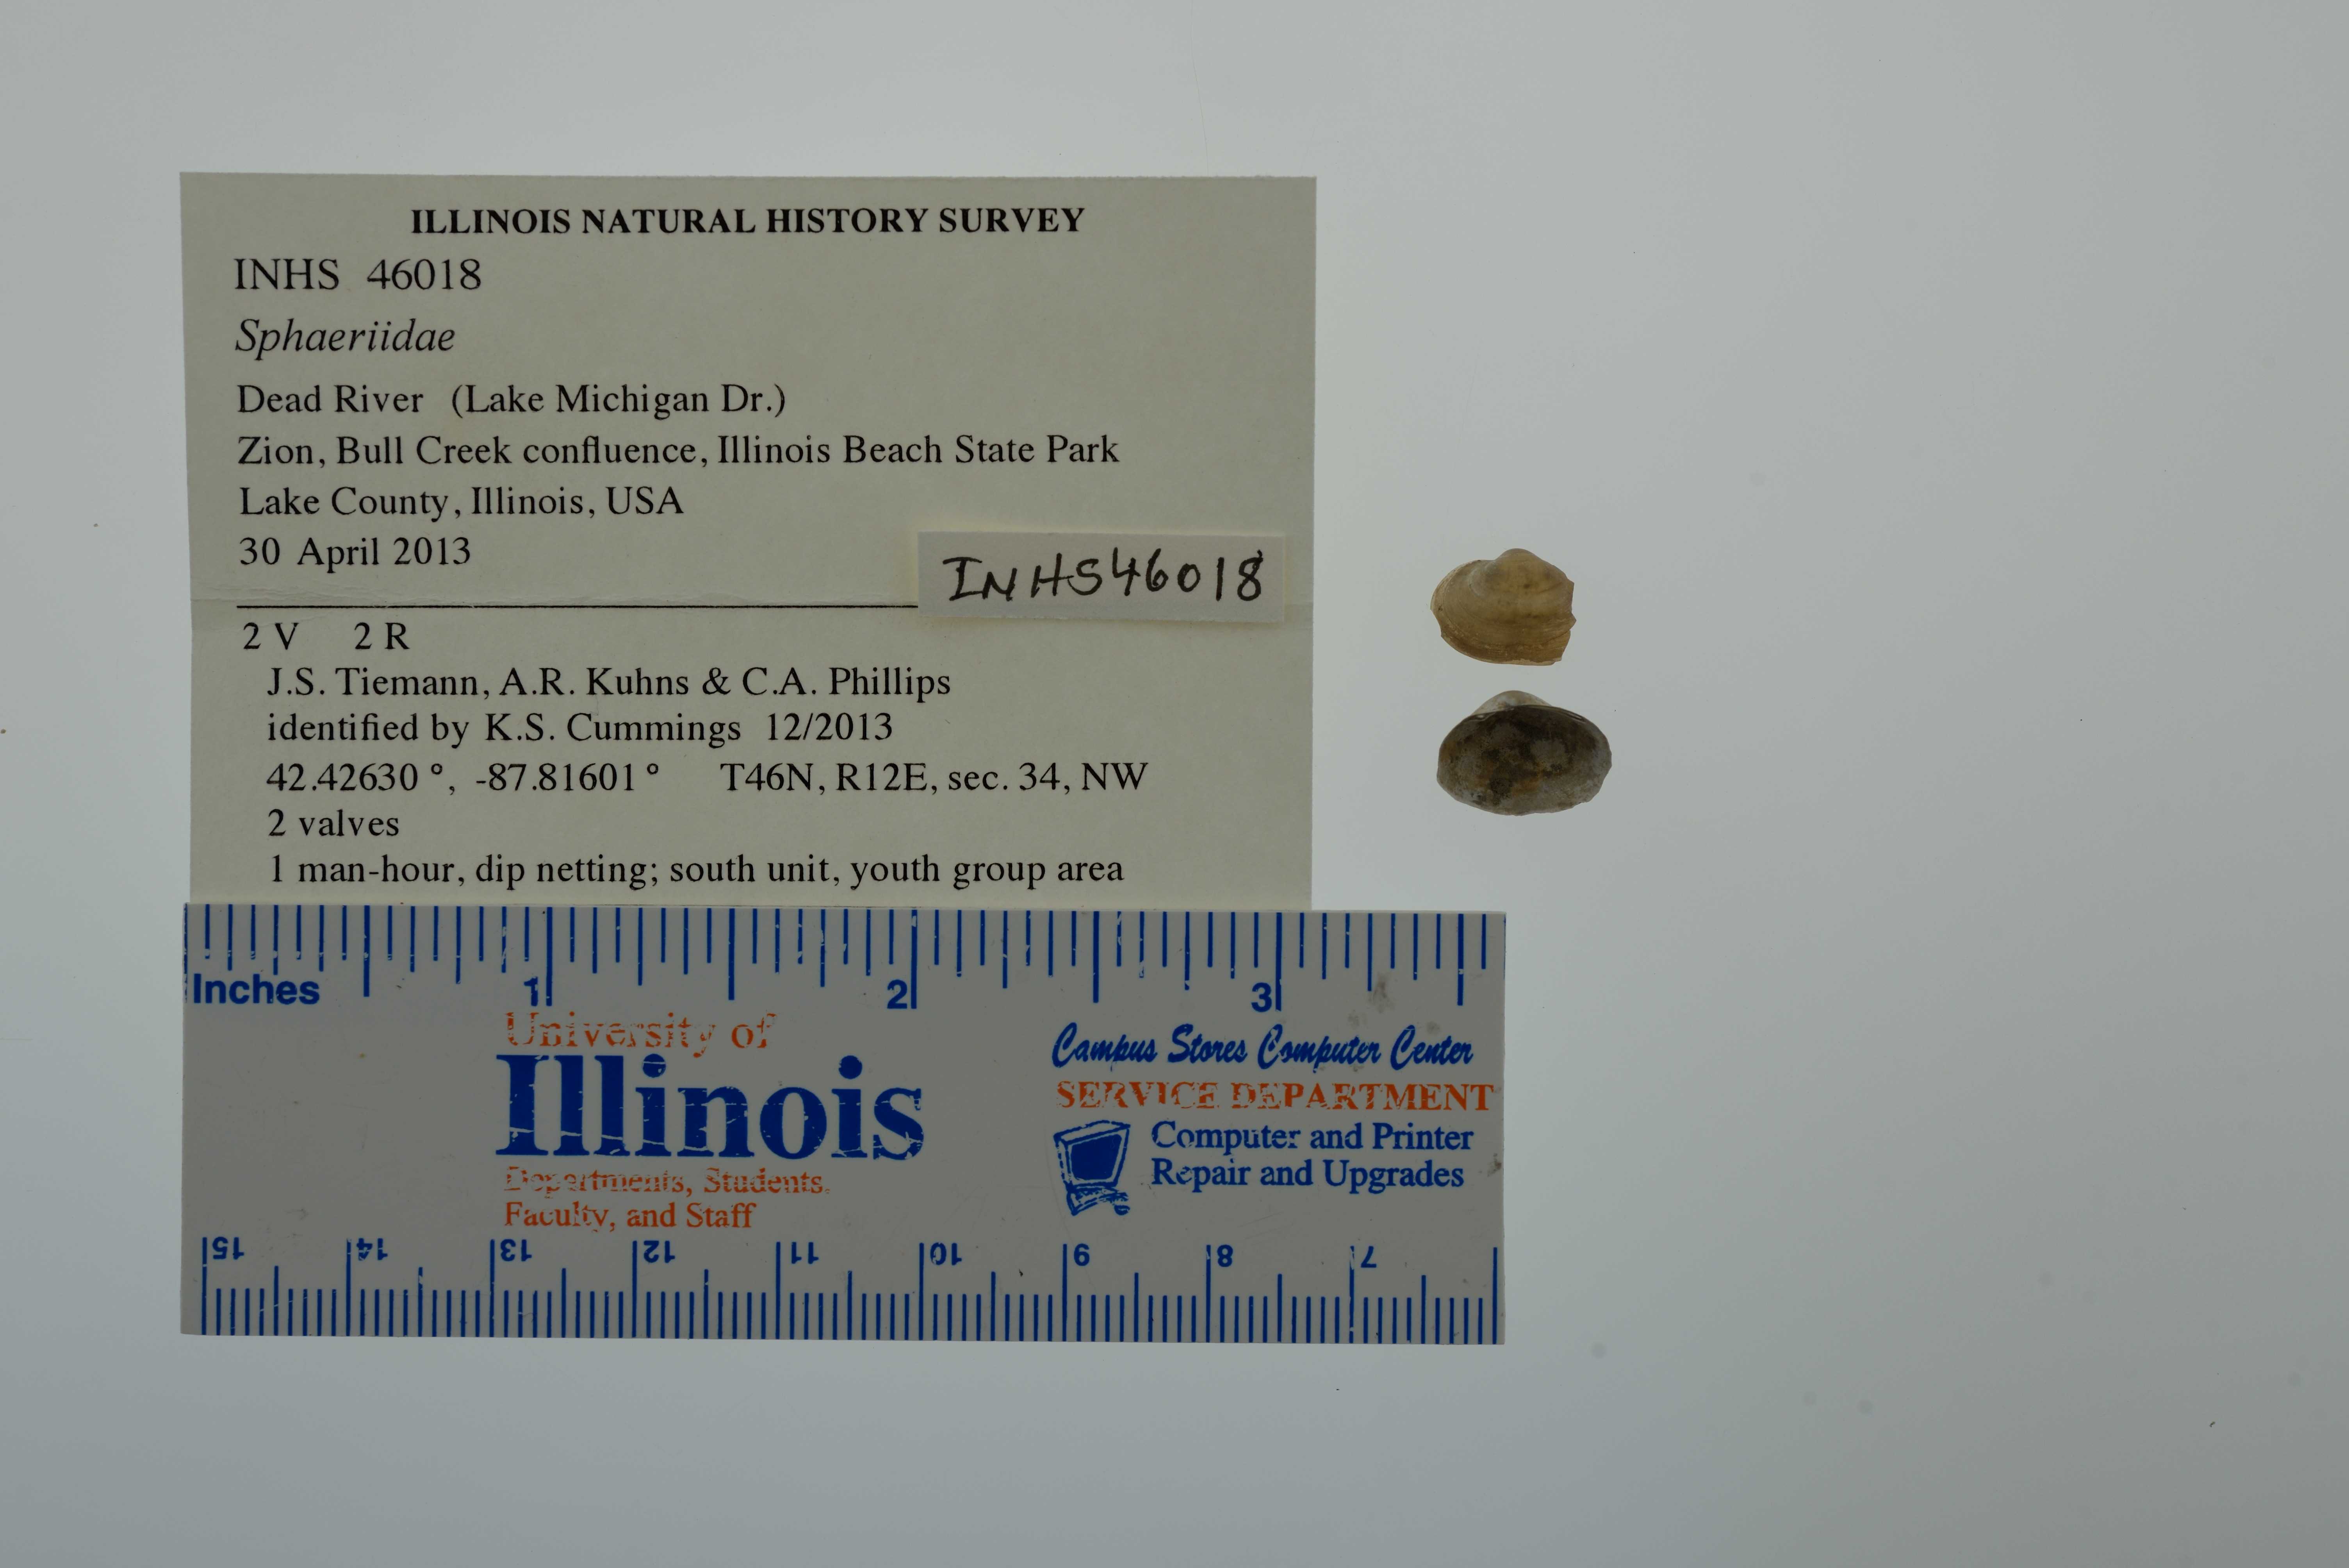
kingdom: Animalia
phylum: Mollusca
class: Bivalvia
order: Sphaeriida
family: Sphaeriidae
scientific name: Sphaeriidae
